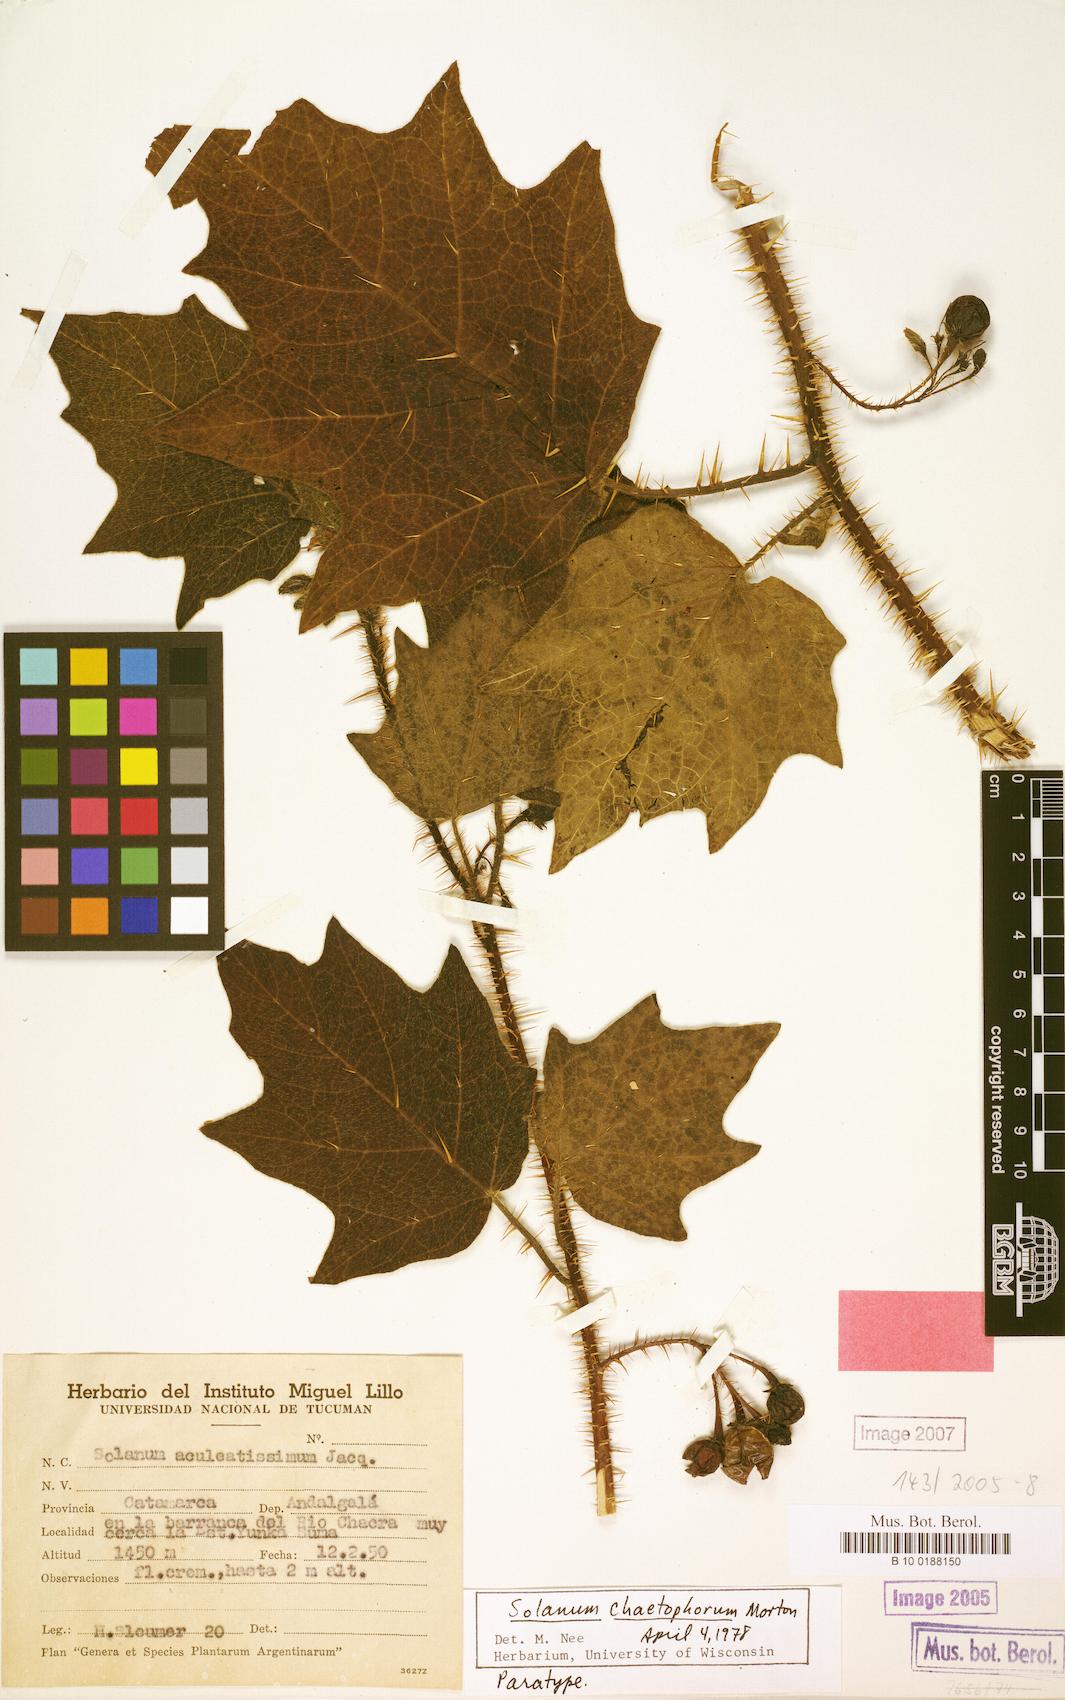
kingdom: Plantae
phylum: Tracheophyta
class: Magnoliopsida
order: Solanales
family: Solanaceae
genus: Solanum
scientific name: Solanum tenuispinum
